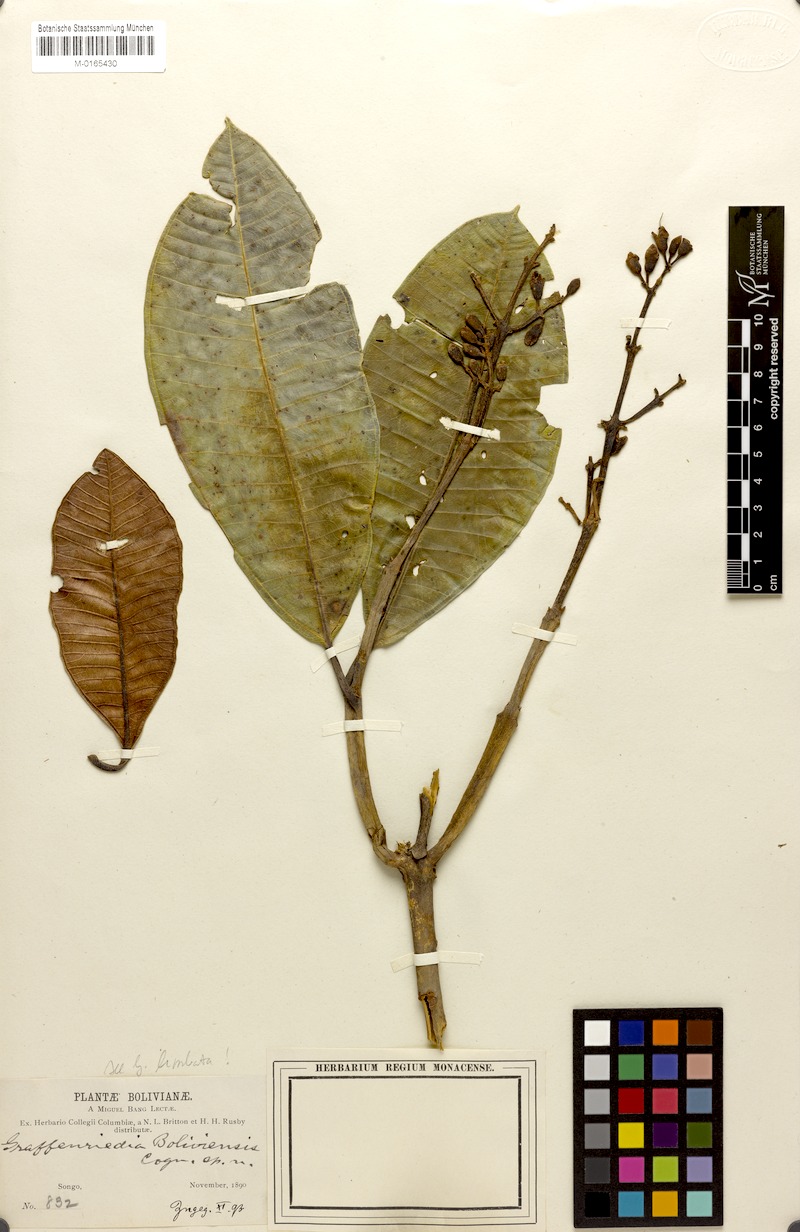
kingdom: Plantae
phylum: Tracheophyta
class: Magnoliopsida
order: Myrtales
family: Melastomataceae
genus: Graffenrieda
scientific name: Graffenrieda limbata
